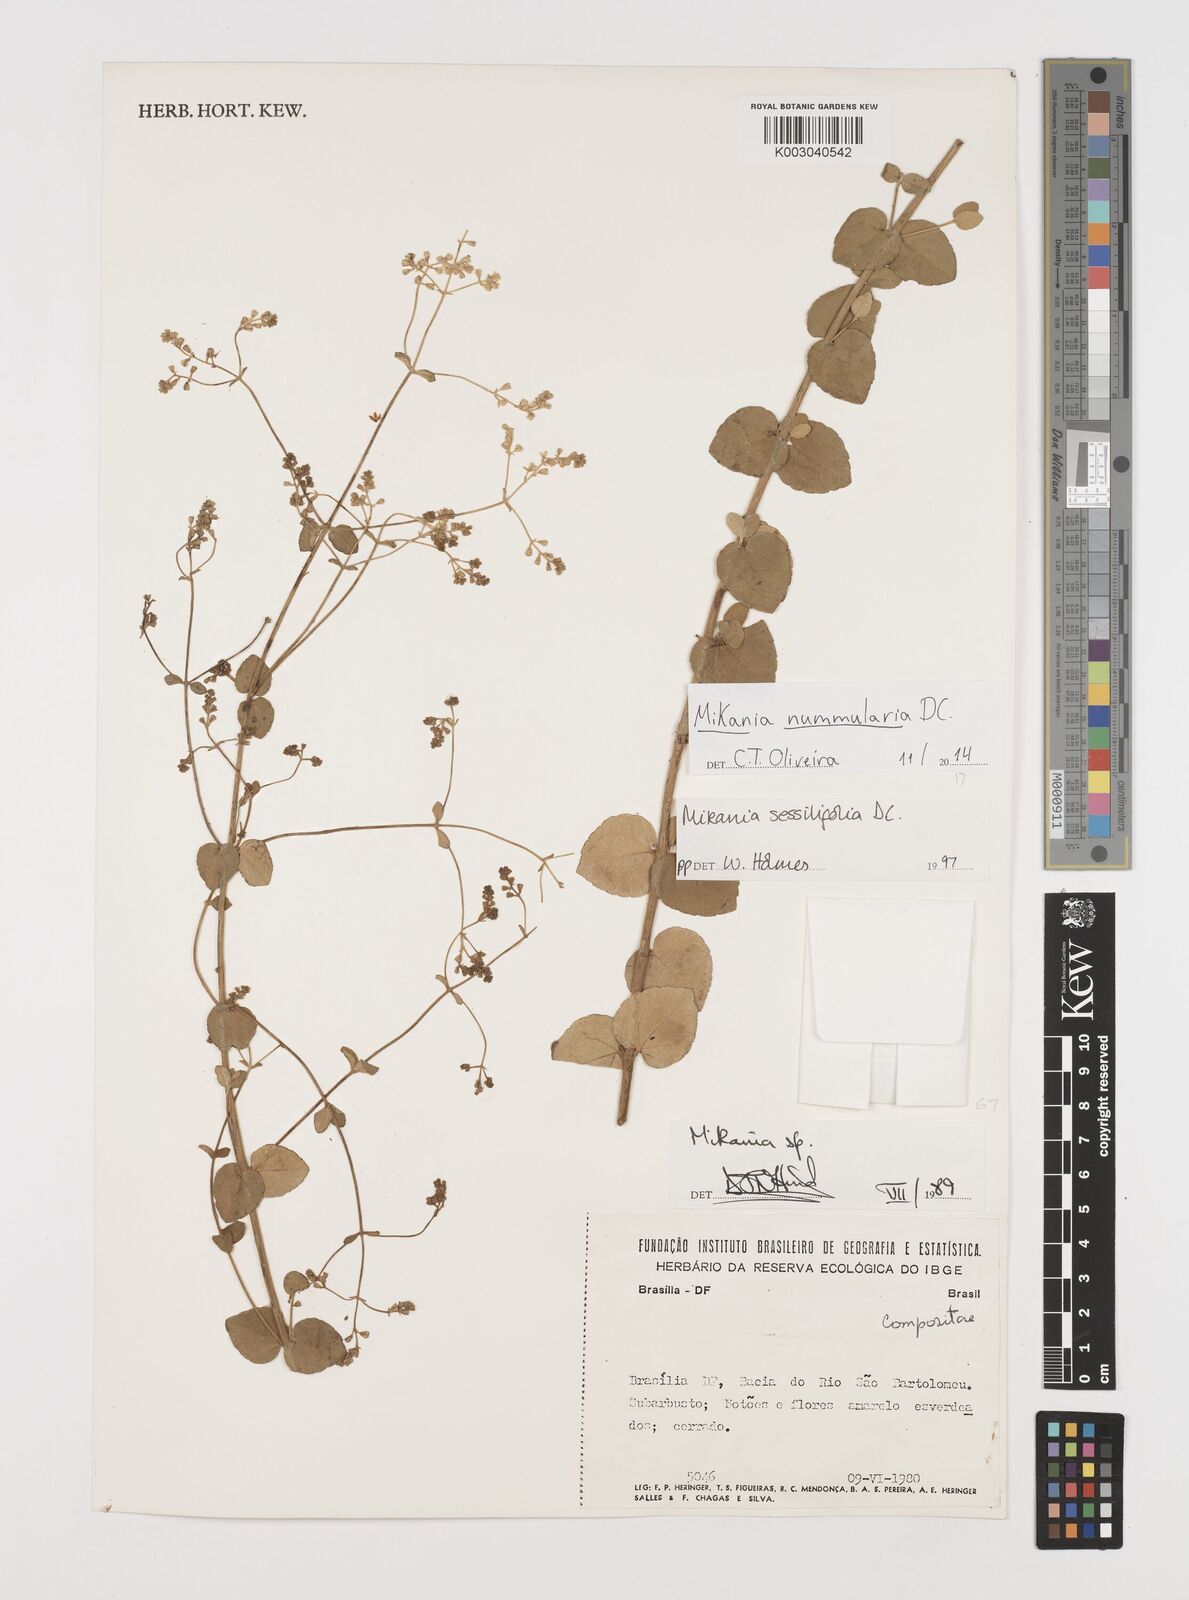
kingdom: Plantae
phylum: Tracheophyta
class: Magnoliopsida
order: Asterales
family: Asteraceae
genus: Mikania
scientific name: Mikania nummularia
